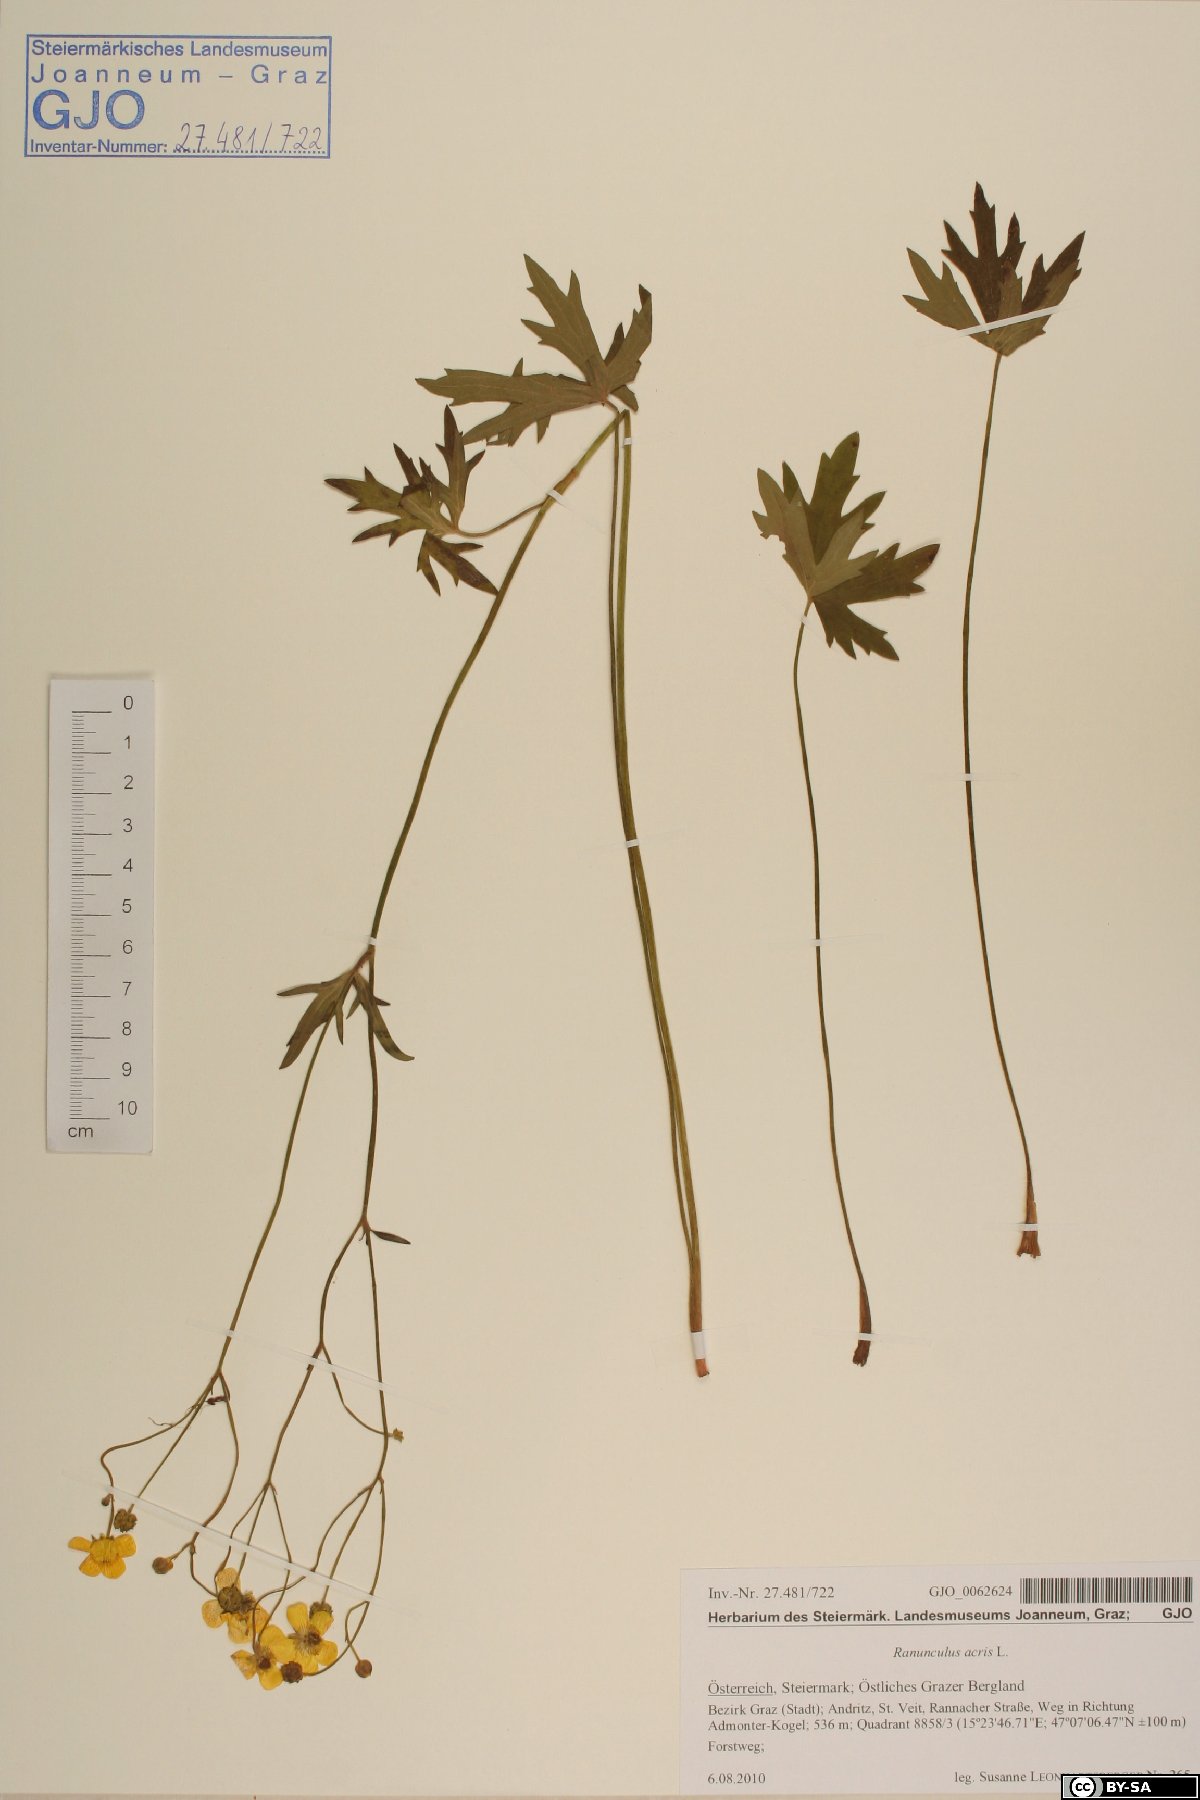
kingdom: Plantae
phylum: Tracheophyta
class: Magnoliopsida
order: Ranunculales
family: Ranunculaceae
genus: Ranunculus
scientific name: Ranunculus acris
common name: Meadow buttercup
